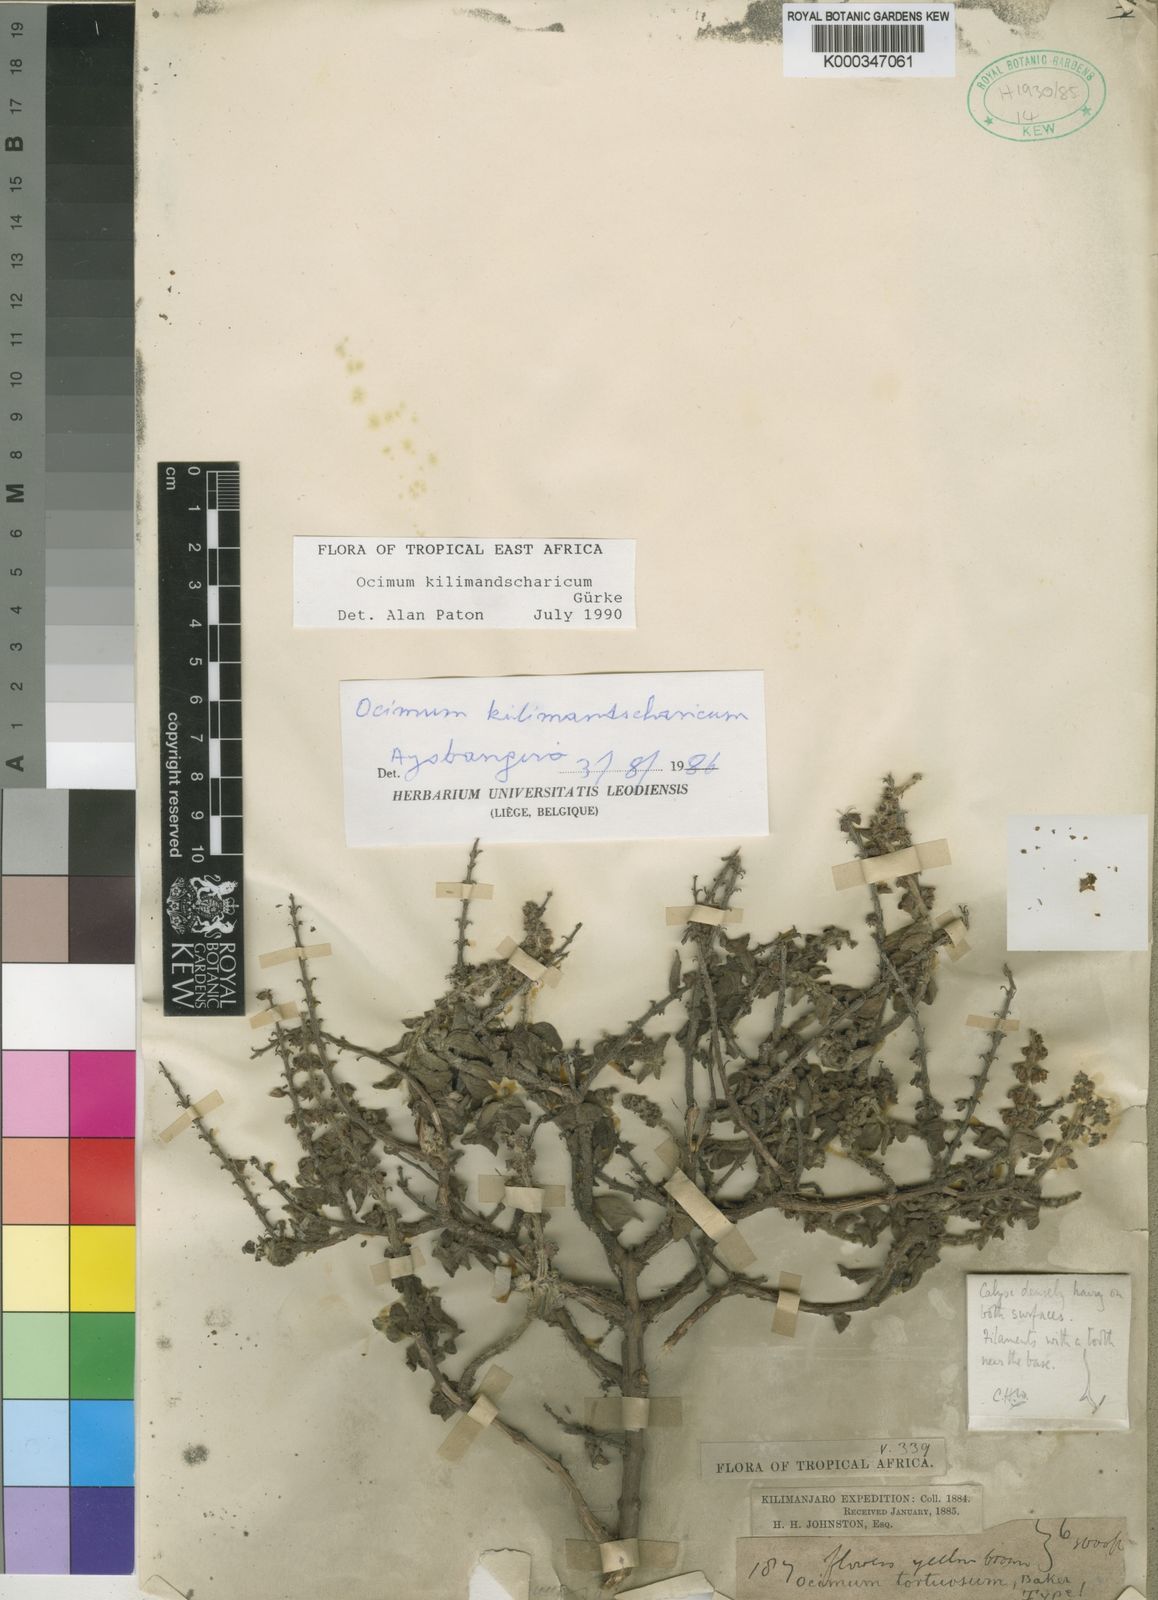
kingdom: Plantae
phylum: Tracheophyta
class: Magnoliopsida
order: Lamiales
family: Lamiaceae
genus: Ocimum
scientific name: Ocimum
